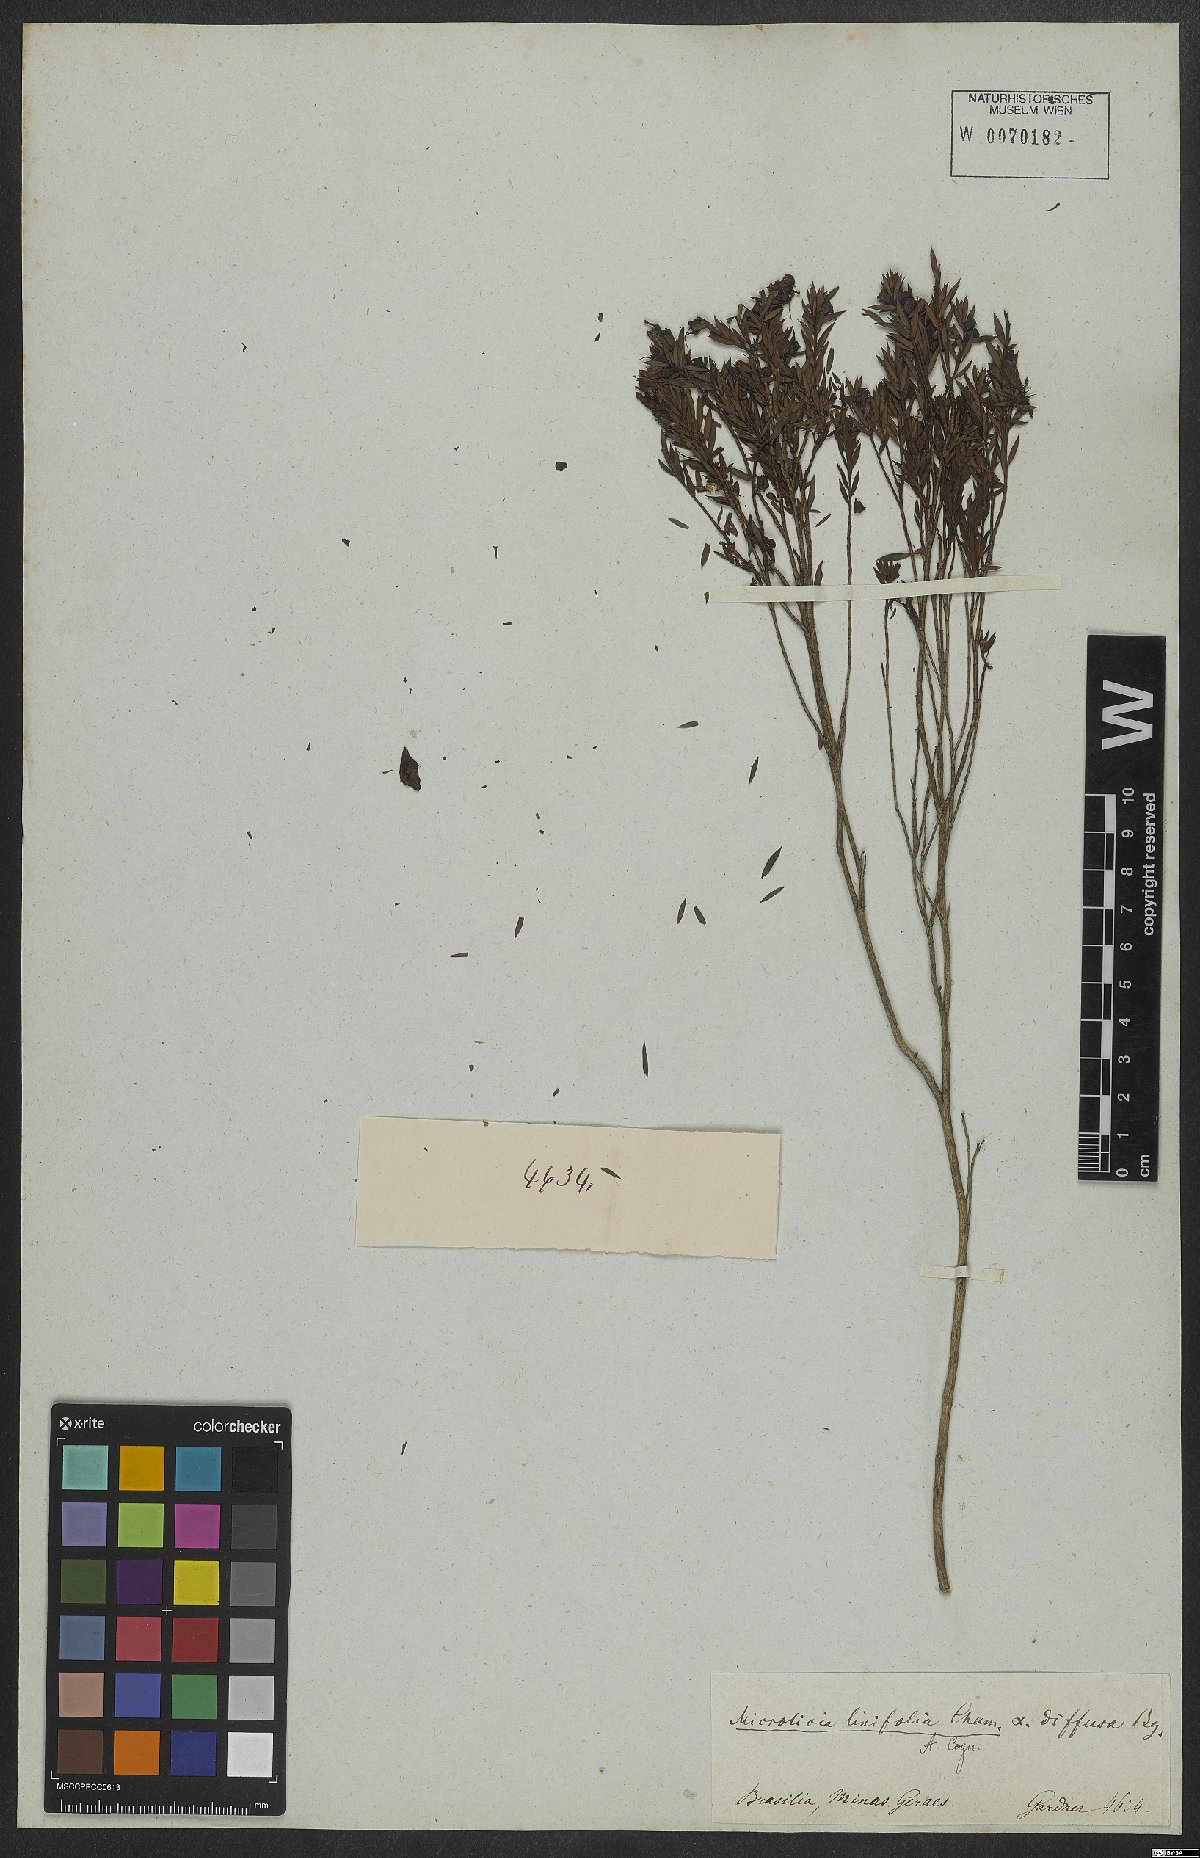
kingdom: Plantae
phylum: Tracheophyta
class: Magnoliopsida
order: Myrtales
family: Melastomataceae
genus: Microlicia
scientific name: Microlicia linifolia
